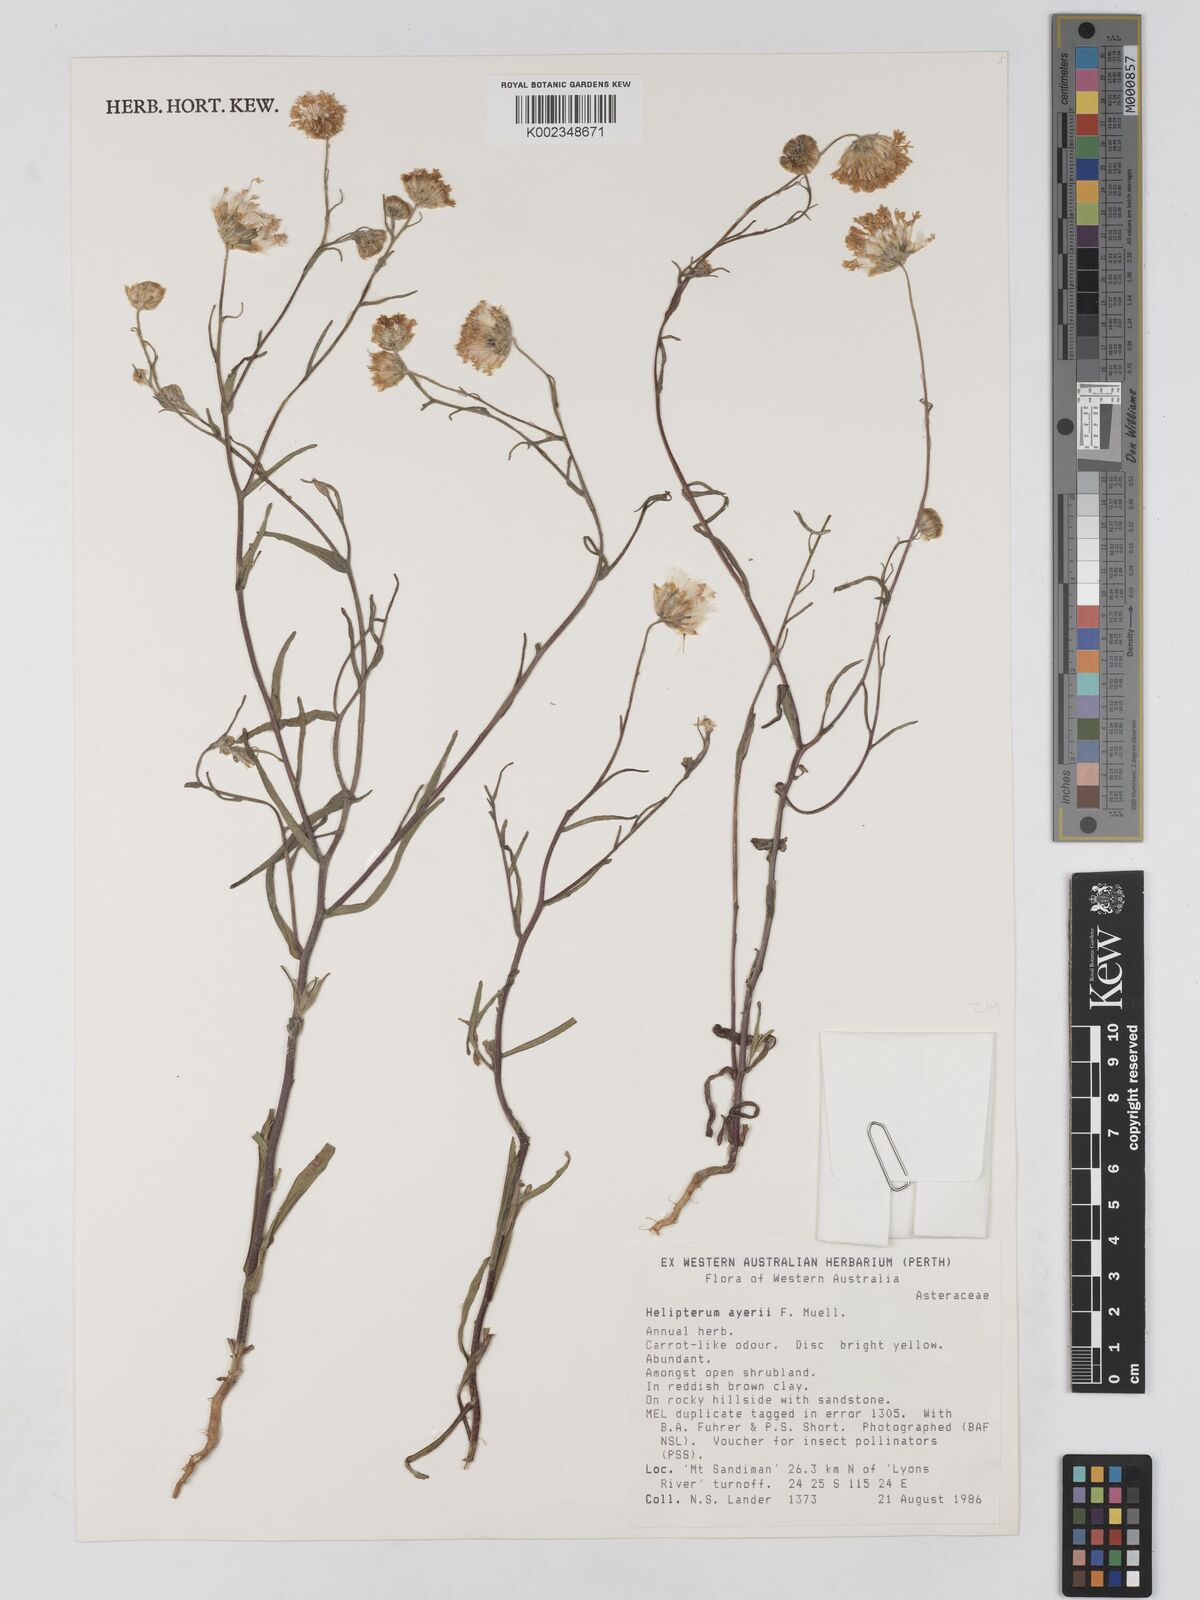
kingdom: Plantae
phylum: Tracheophyta
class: Magnoliopsida
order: Asterales
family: Asteraceae
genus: Schoenia
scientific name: Schoenia ayersii
